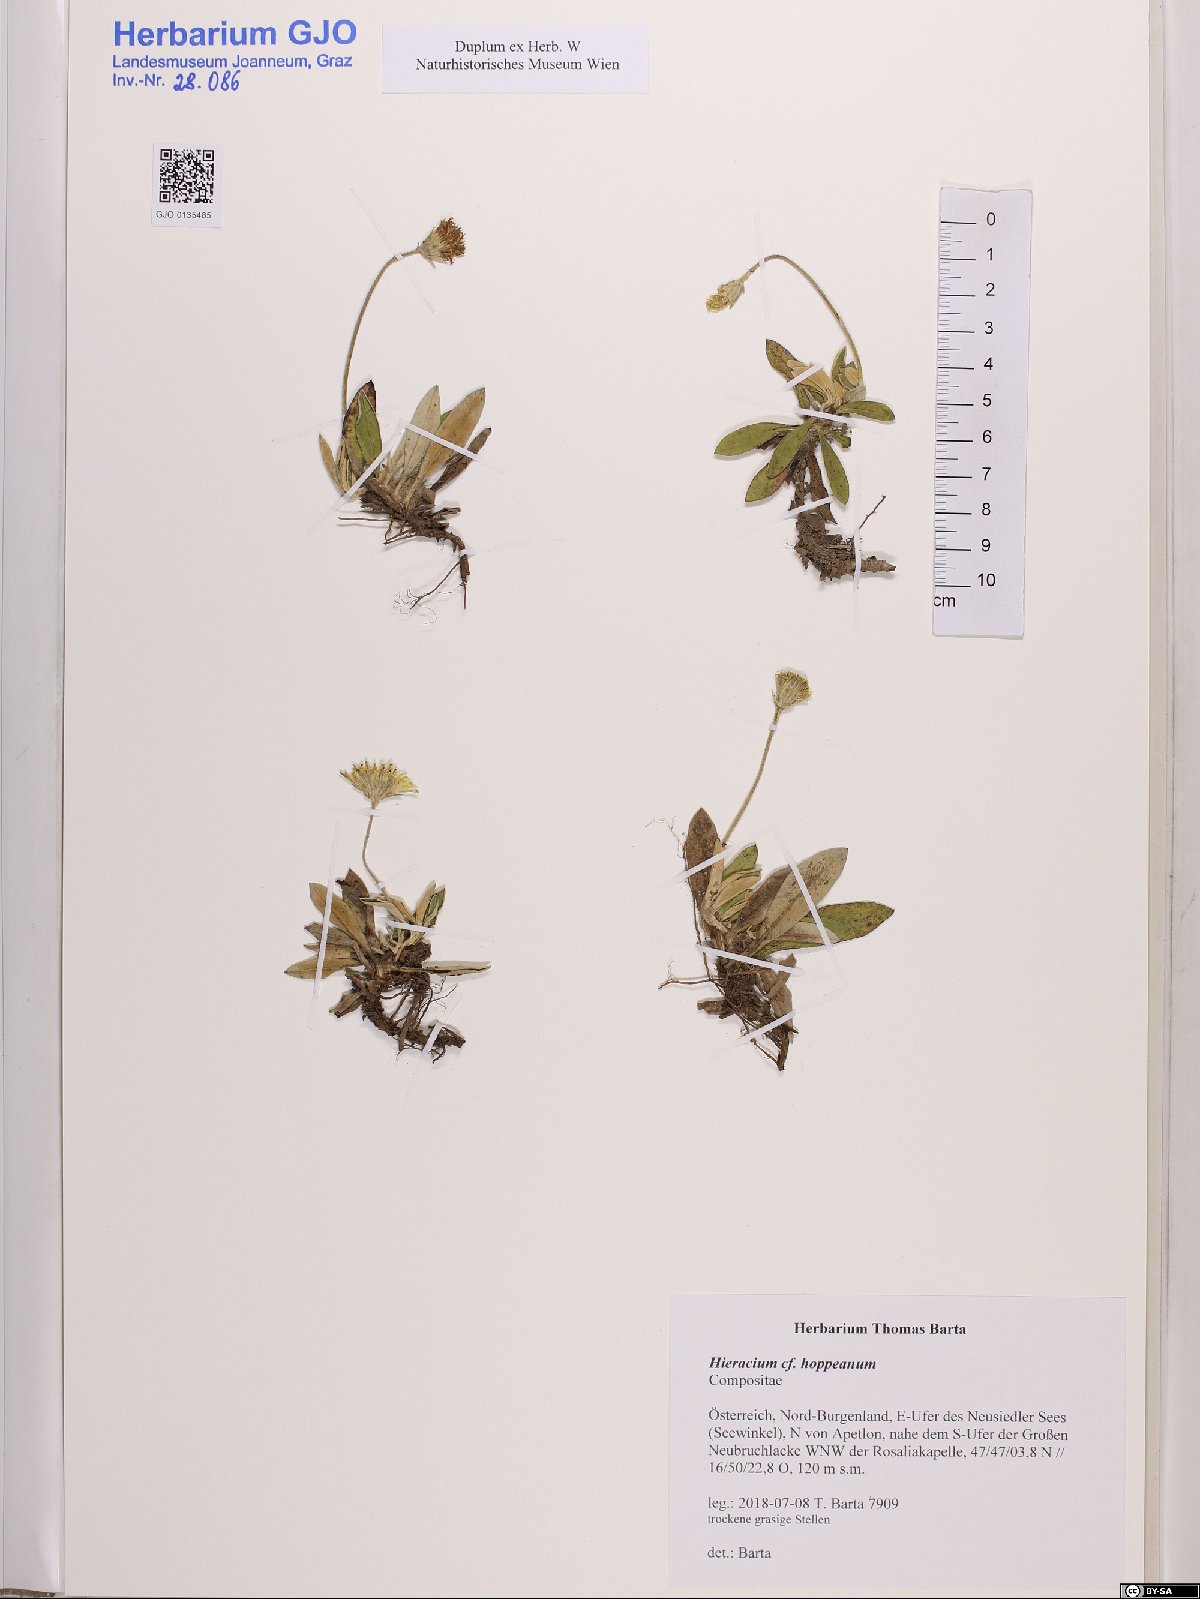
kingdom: Plantae
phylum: Tracheophyta
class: Magnoliopsida
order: Asterales
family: Asteraceae
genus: Pilosella
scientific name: Pilosella hoppeana
